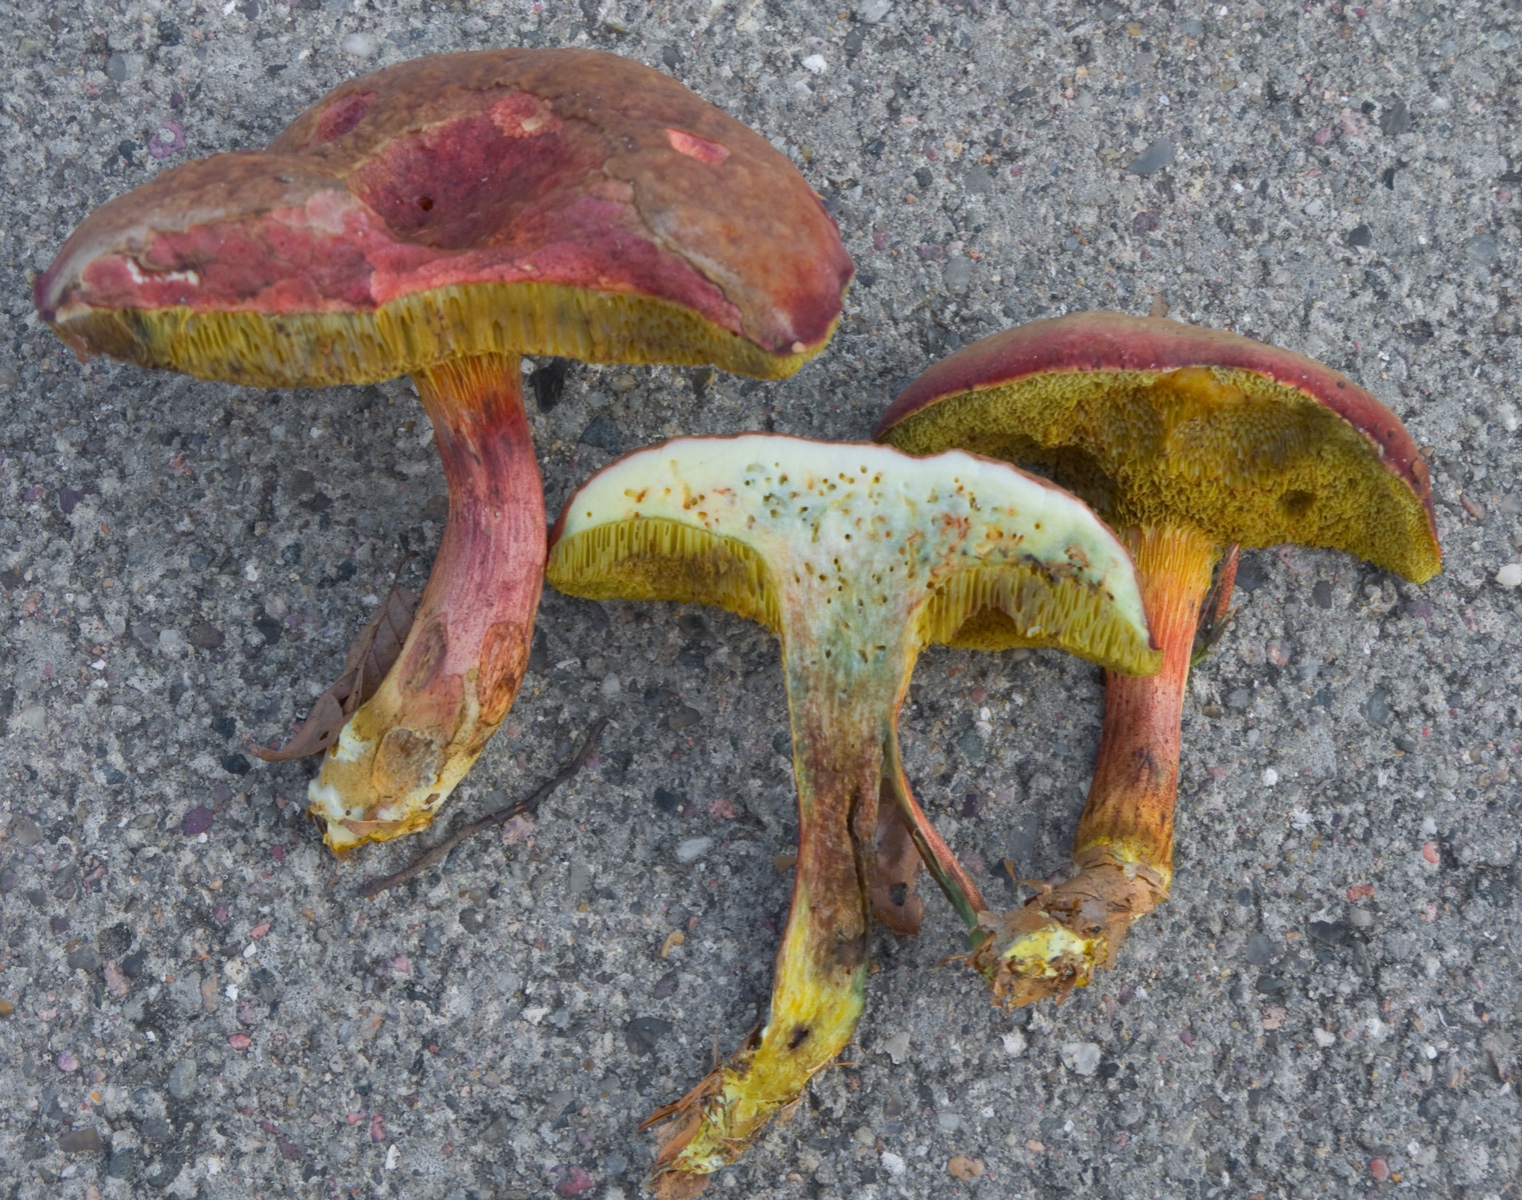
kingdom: Fungi
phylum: Basidiomycota
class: Agaricomycetes
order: Boletales
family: Boletaceae
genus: Xerocomellus
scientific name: Xerocomellus pruinatus
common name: dugget rørhat
